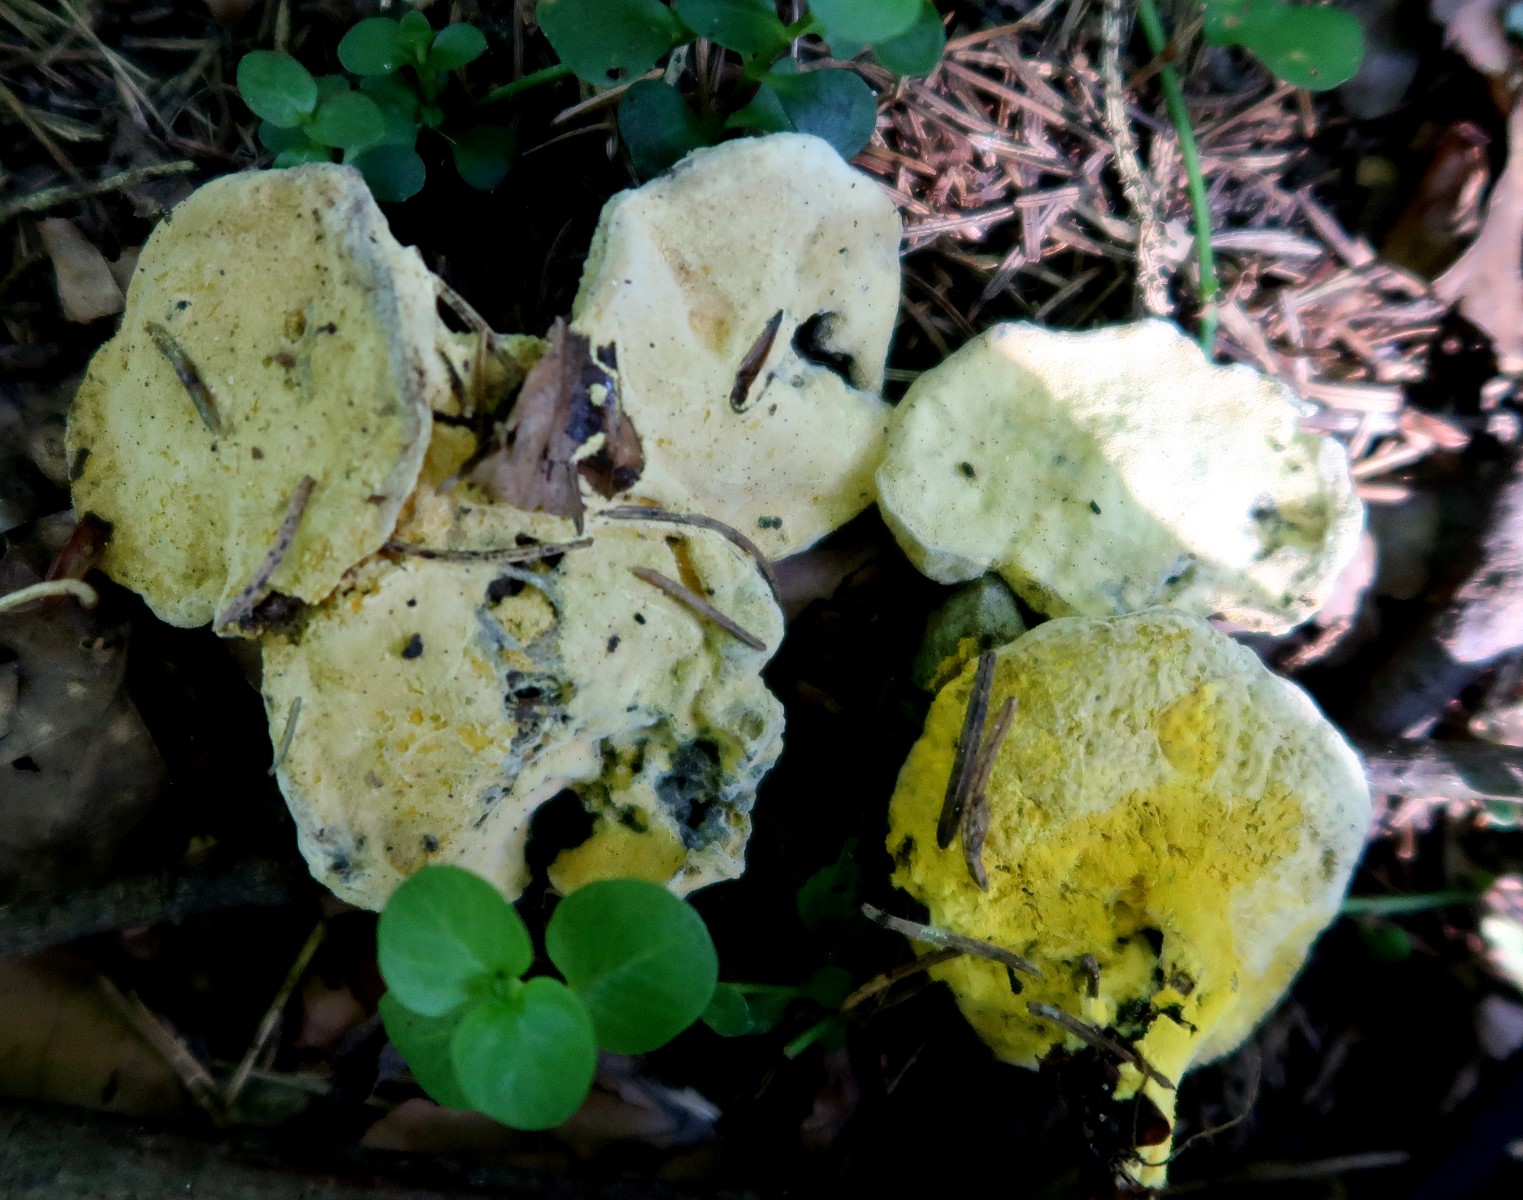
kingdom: Fungi
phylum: Ascomycota
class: Sordariomycetes
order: Hypocreales
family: Hypocreaceae
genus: Hypomyces
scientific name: Hypomyces microspermus
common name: dværgrørhat-snylteskorpe
